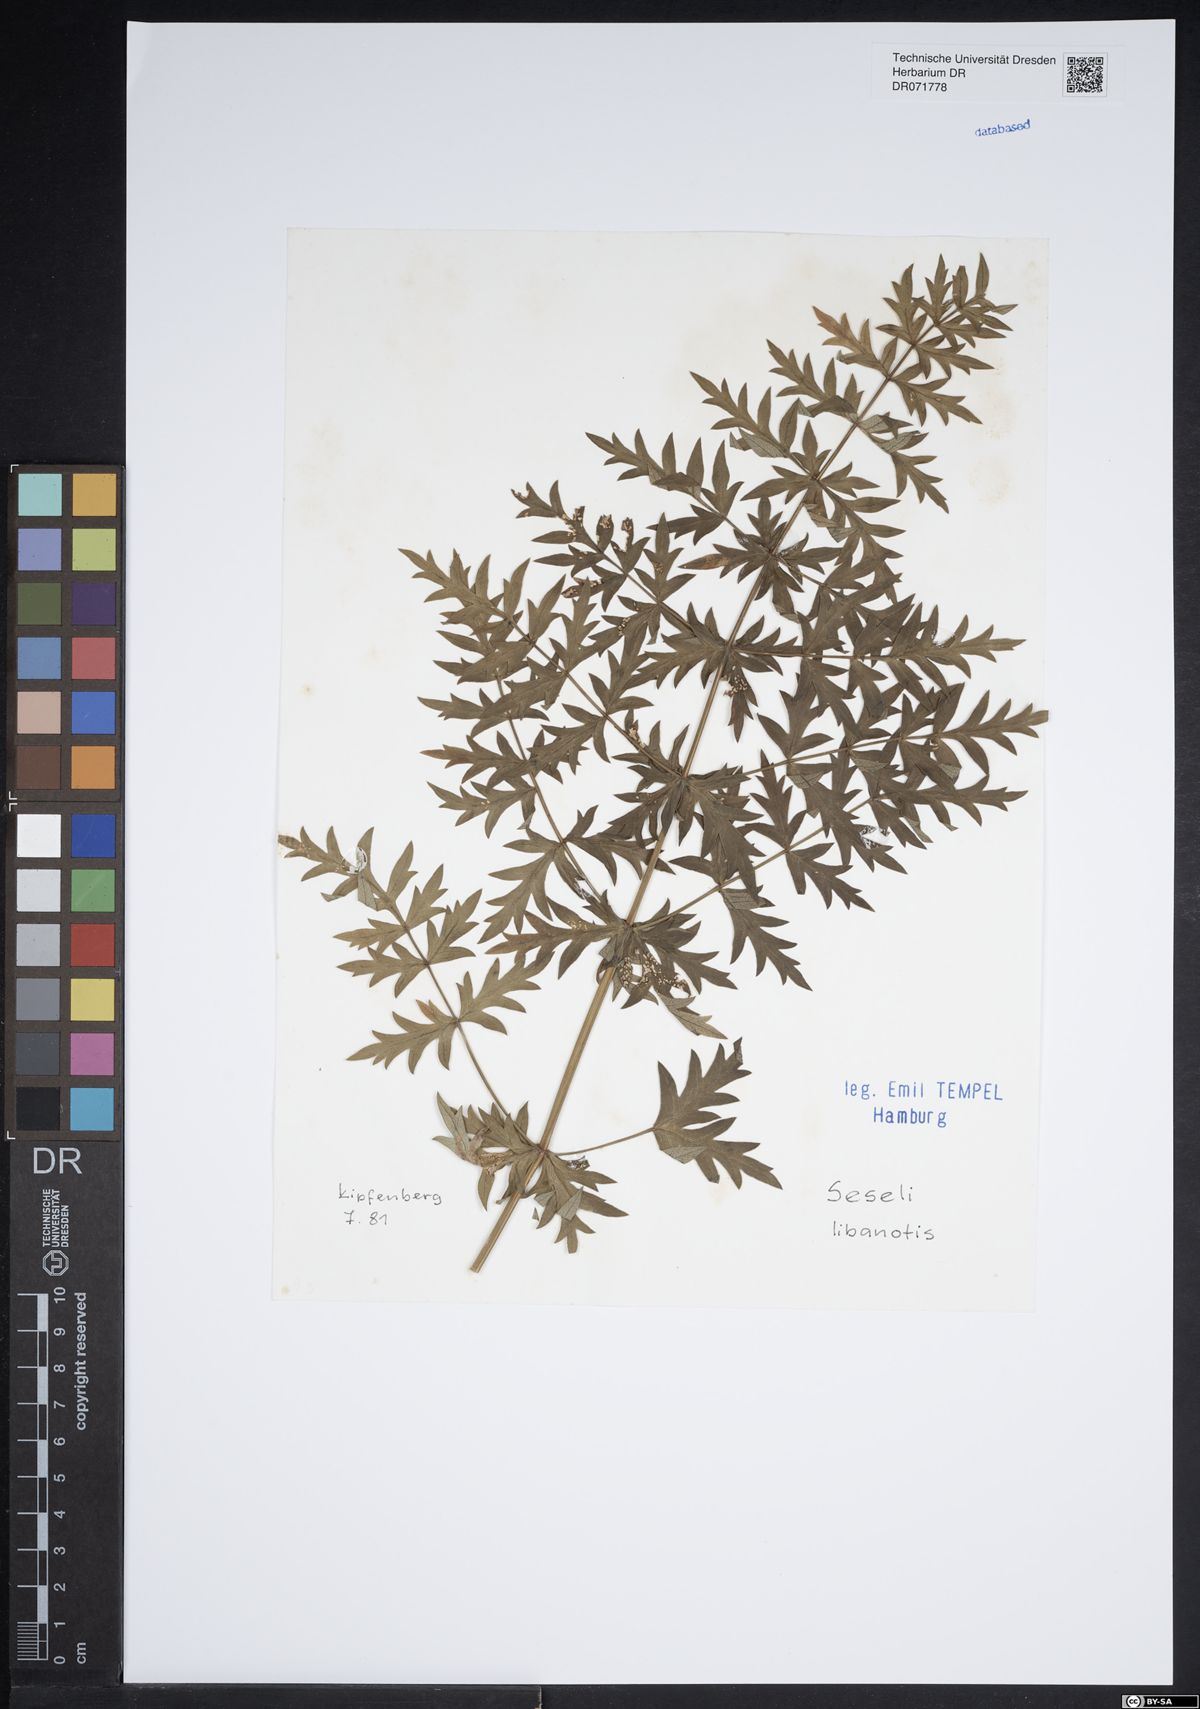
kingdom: Plantae
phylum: Tracheophyta
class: Magnoliopsida
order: Apiales
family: Apiaceae
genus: Seseli
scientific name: Seseli libanotis
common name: Mooncarrot
